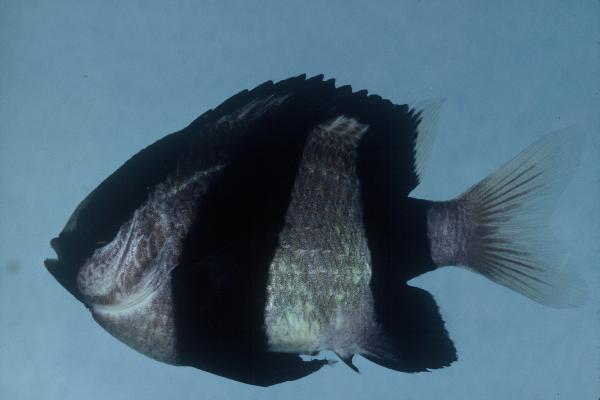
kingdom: Animalia
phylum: Chordata
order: Perciformes
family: Pomacentridae
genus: Dascyllus
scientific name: Dascyllus aruanus
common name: Humbug dascyllus
